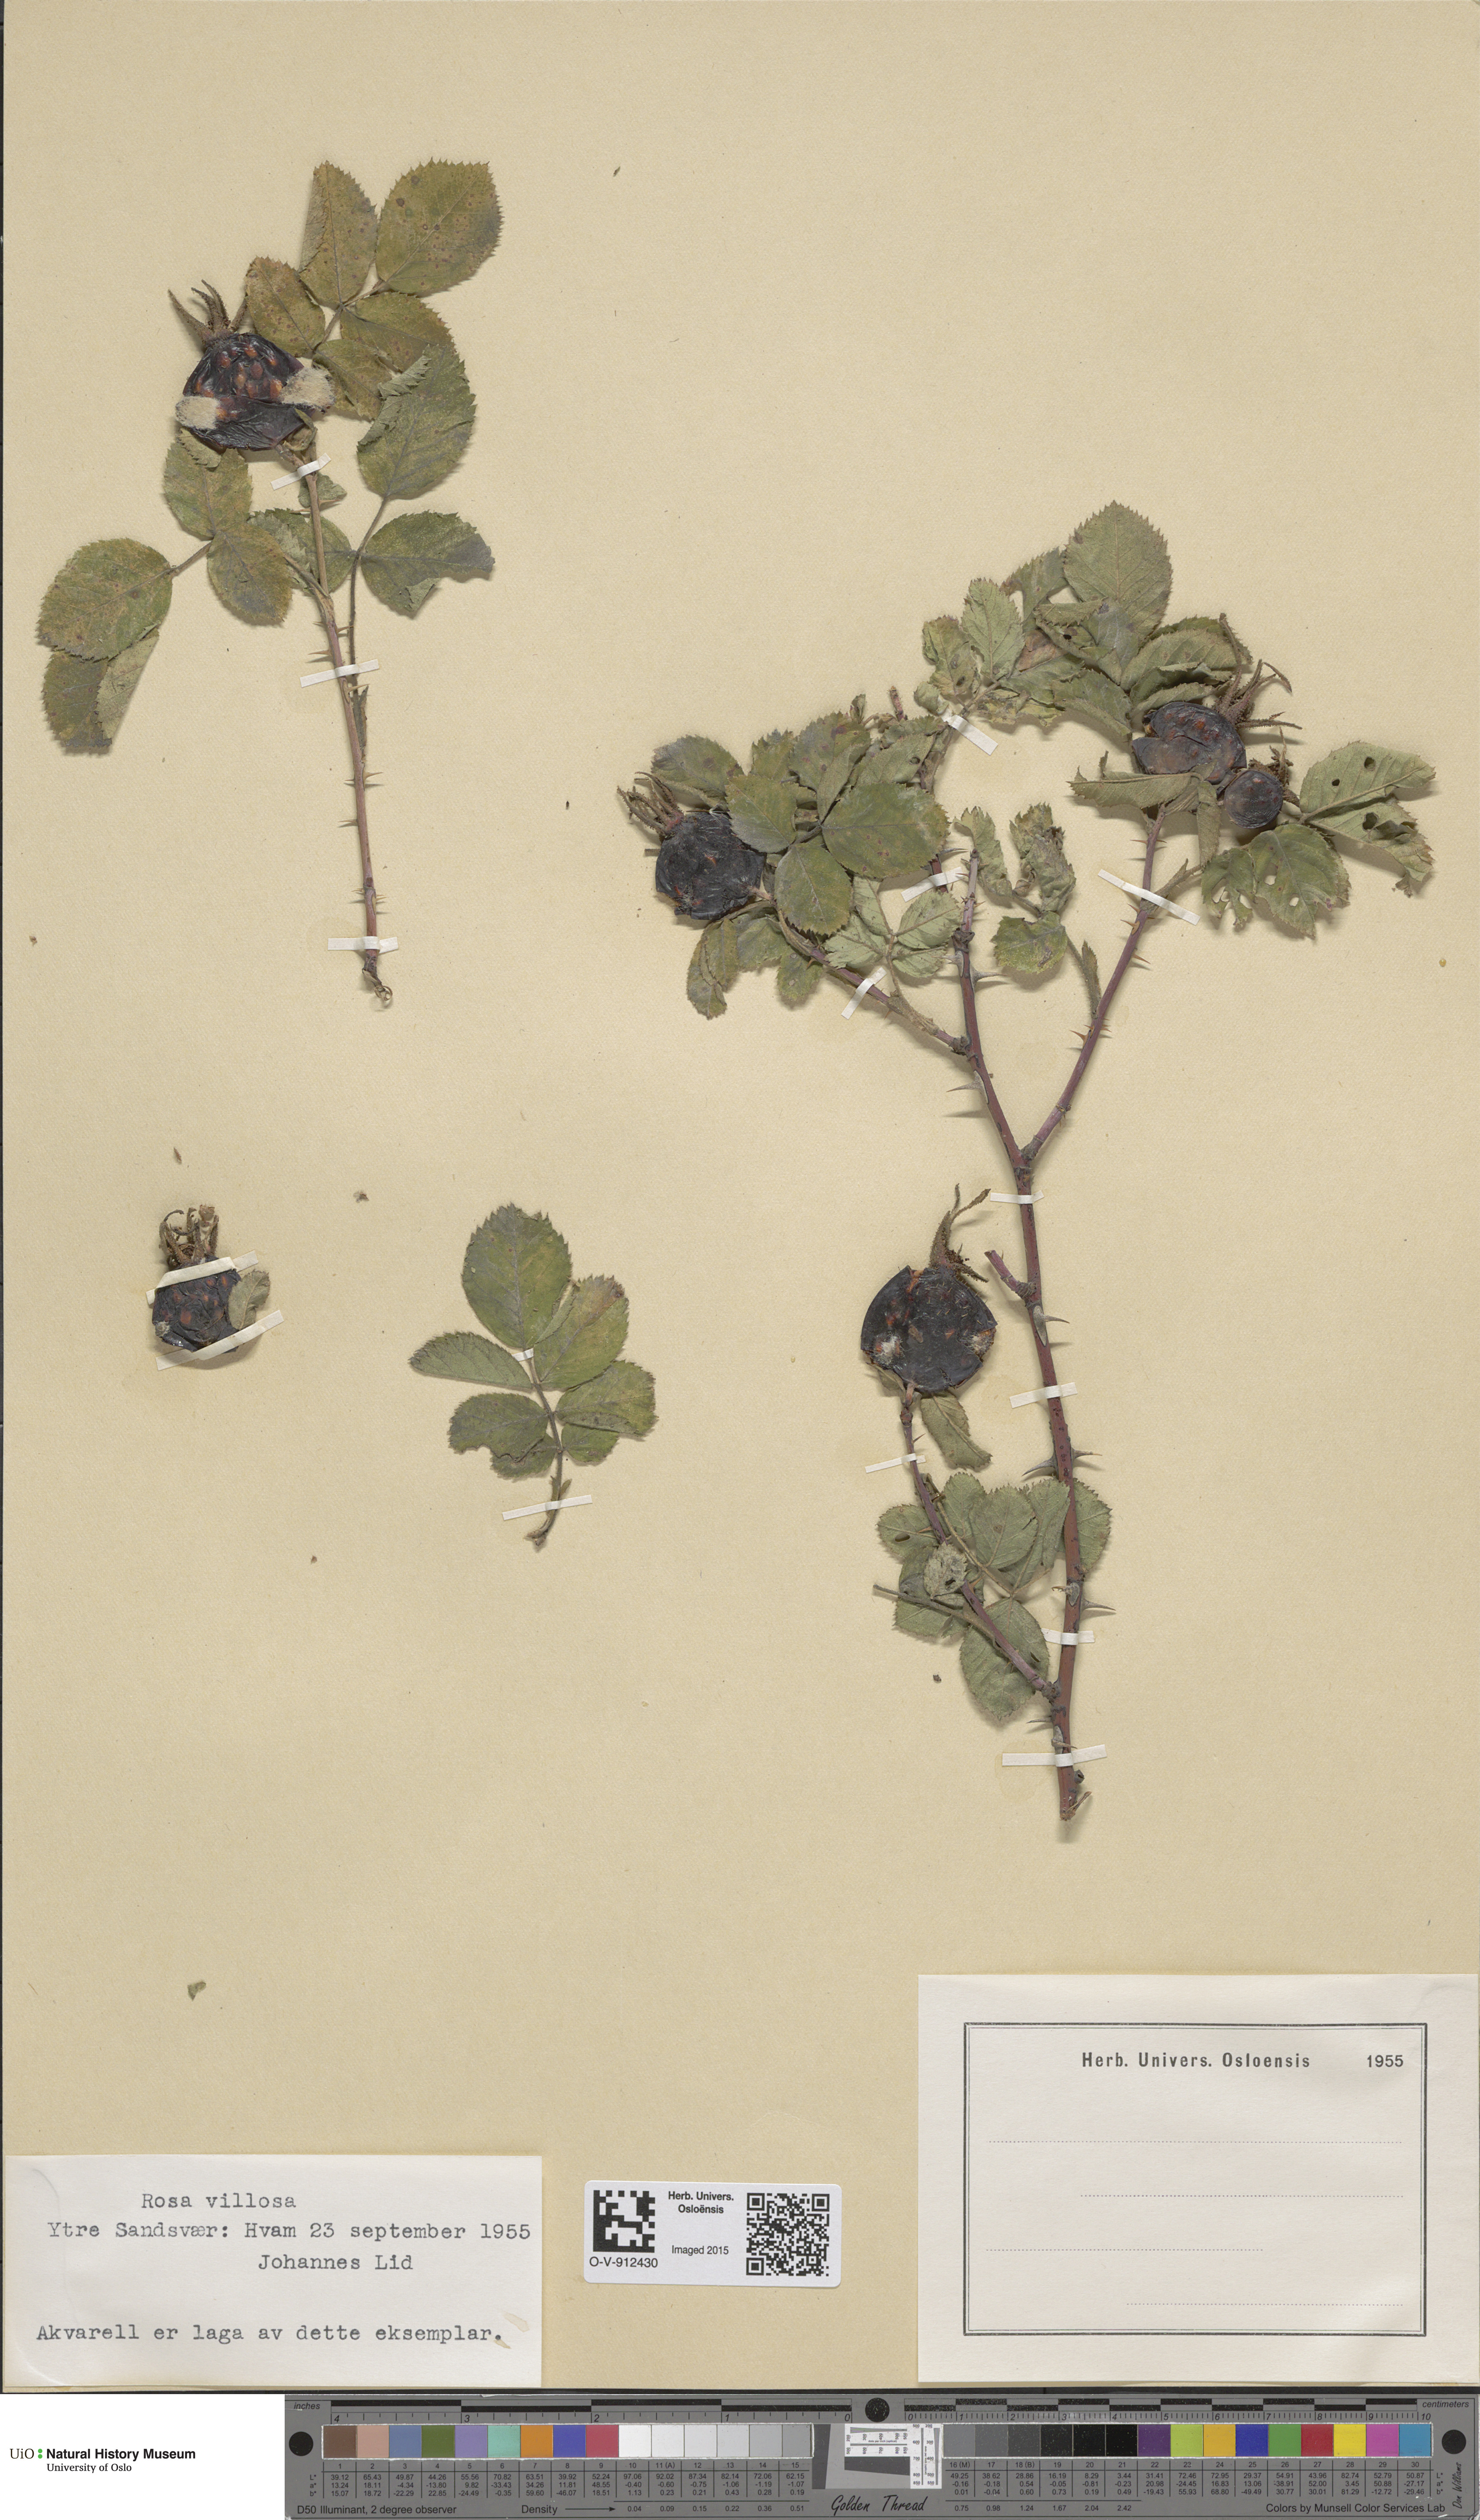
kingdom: Plantae
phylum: Tracheophyta
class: Magnoliopsida
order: Rosales
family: Rosaceae
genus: Rosa
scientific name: Rosa villosa
